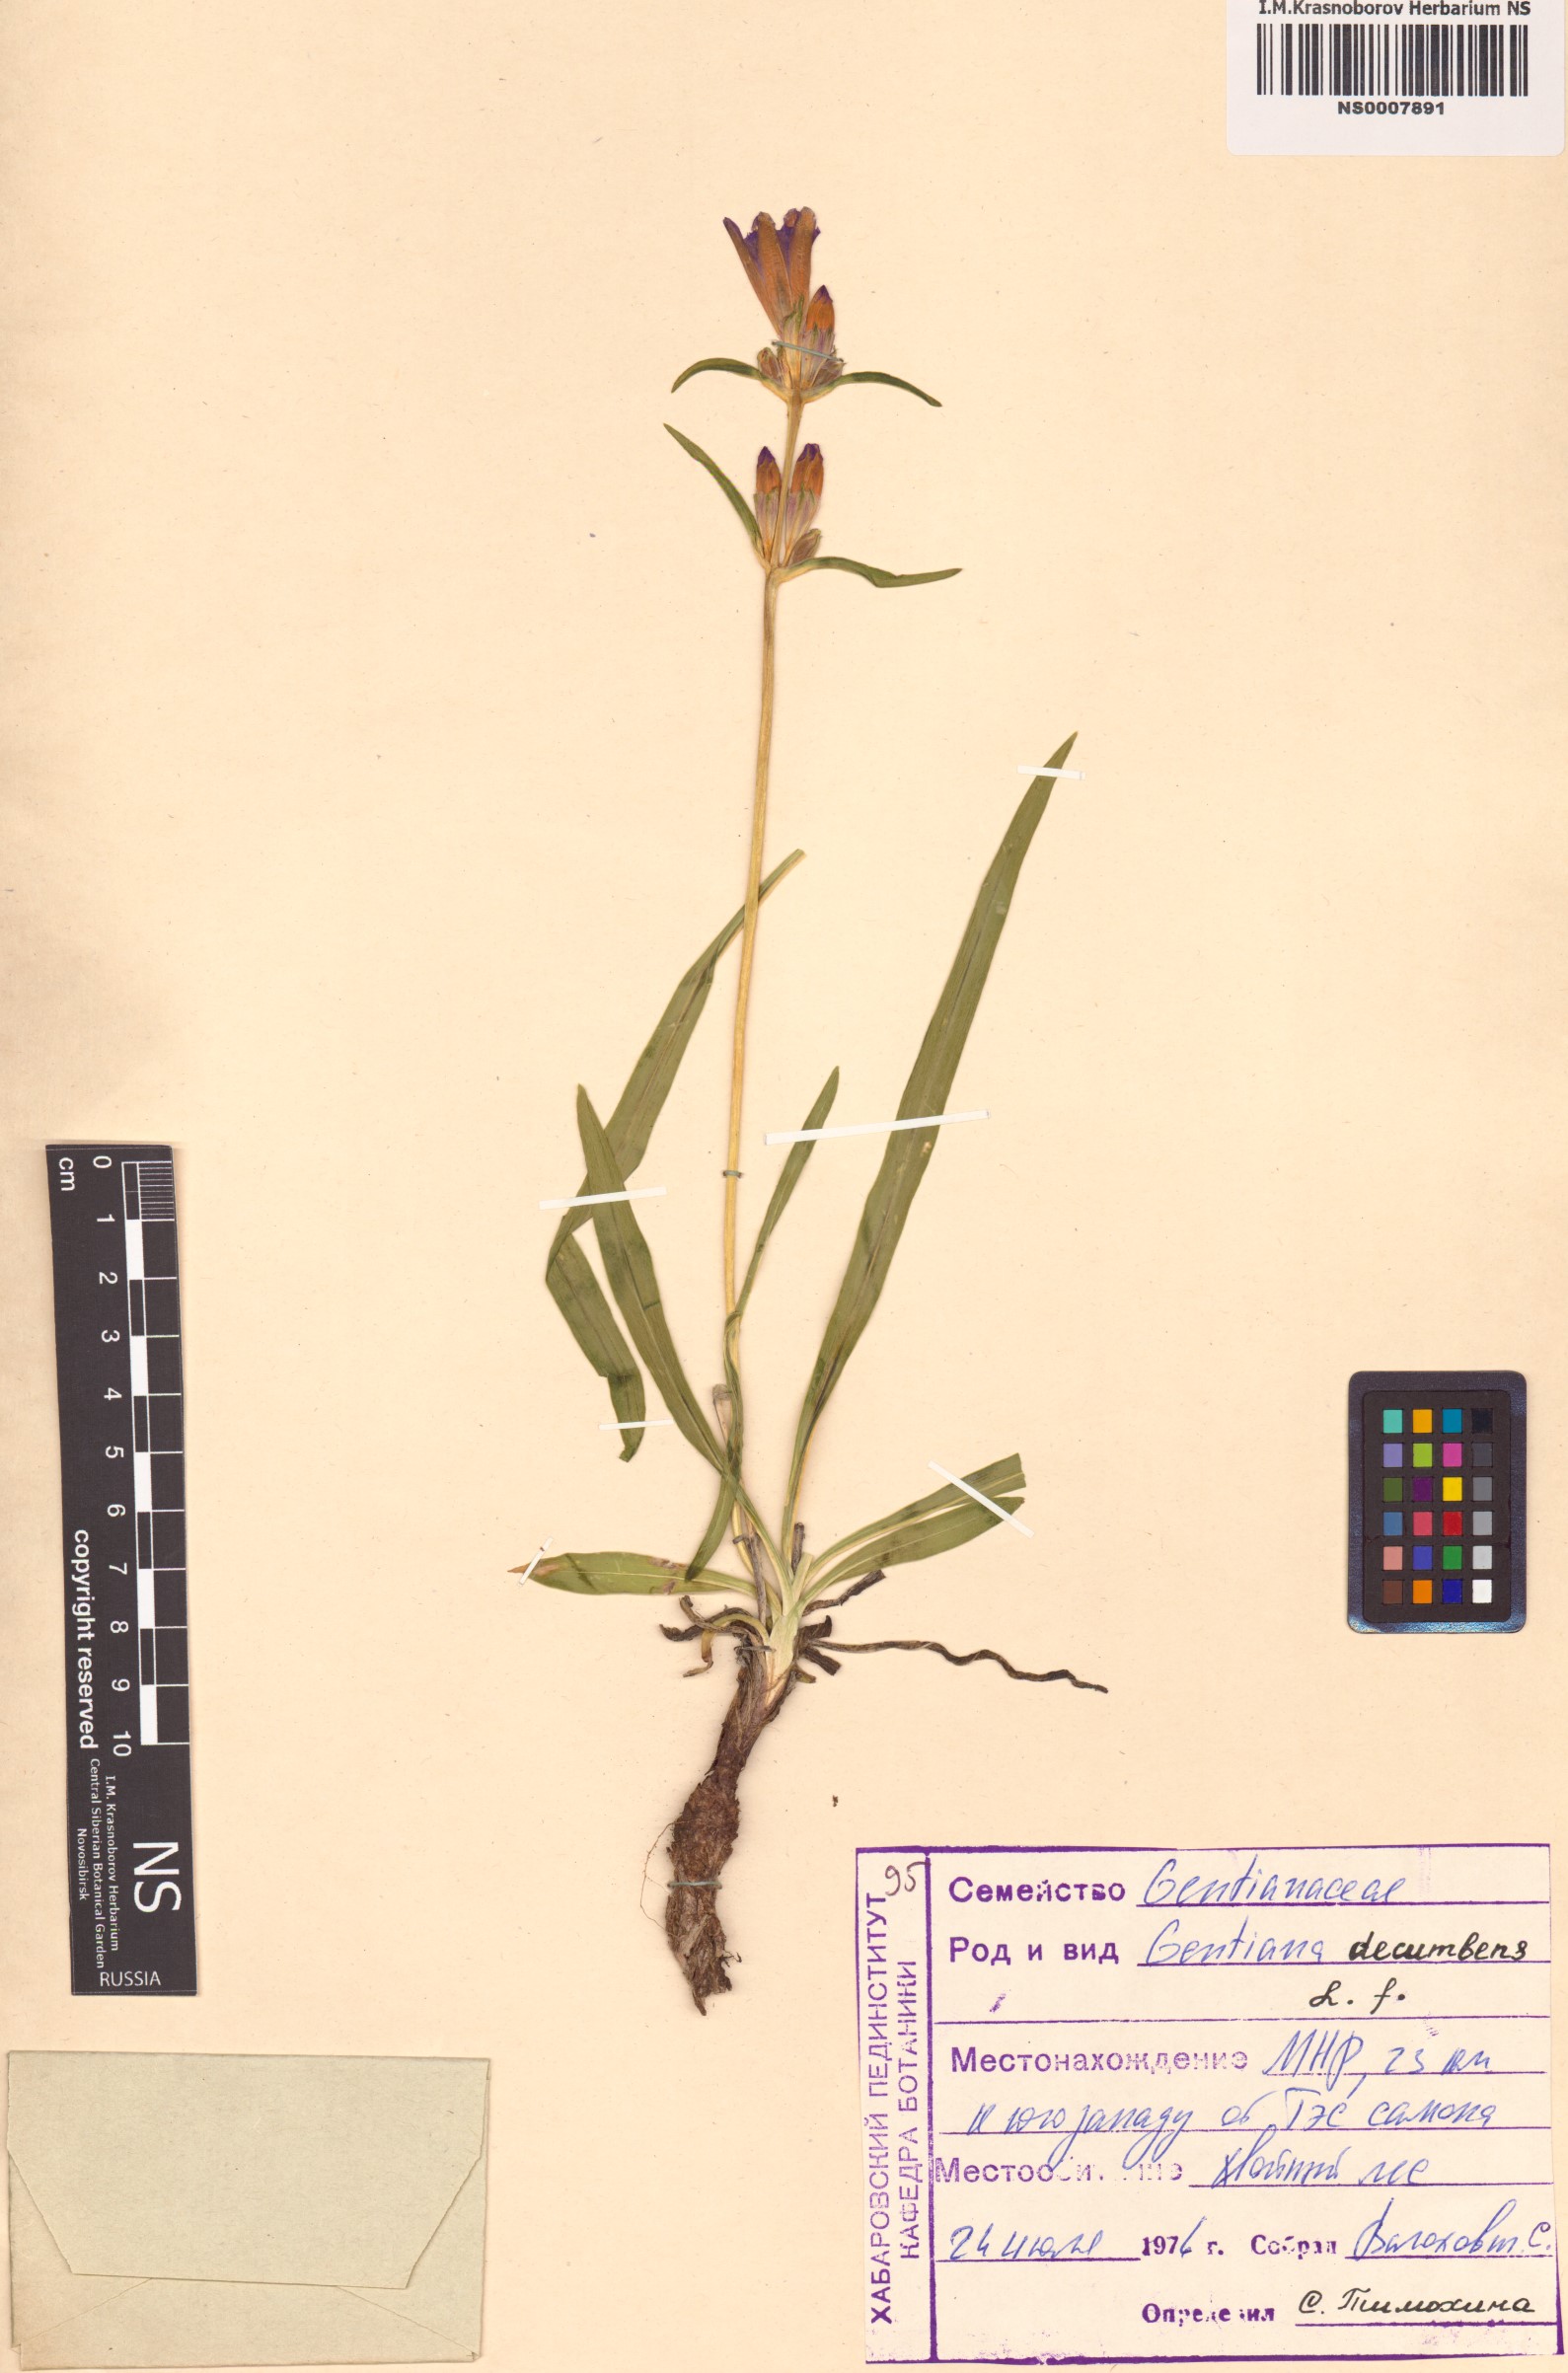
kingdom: Plantae
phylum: Tracheophyta
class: Magnoliopsida
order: Gentianales
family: Gentianaceae
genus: Gentiana
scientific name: Gentiana decumbens
